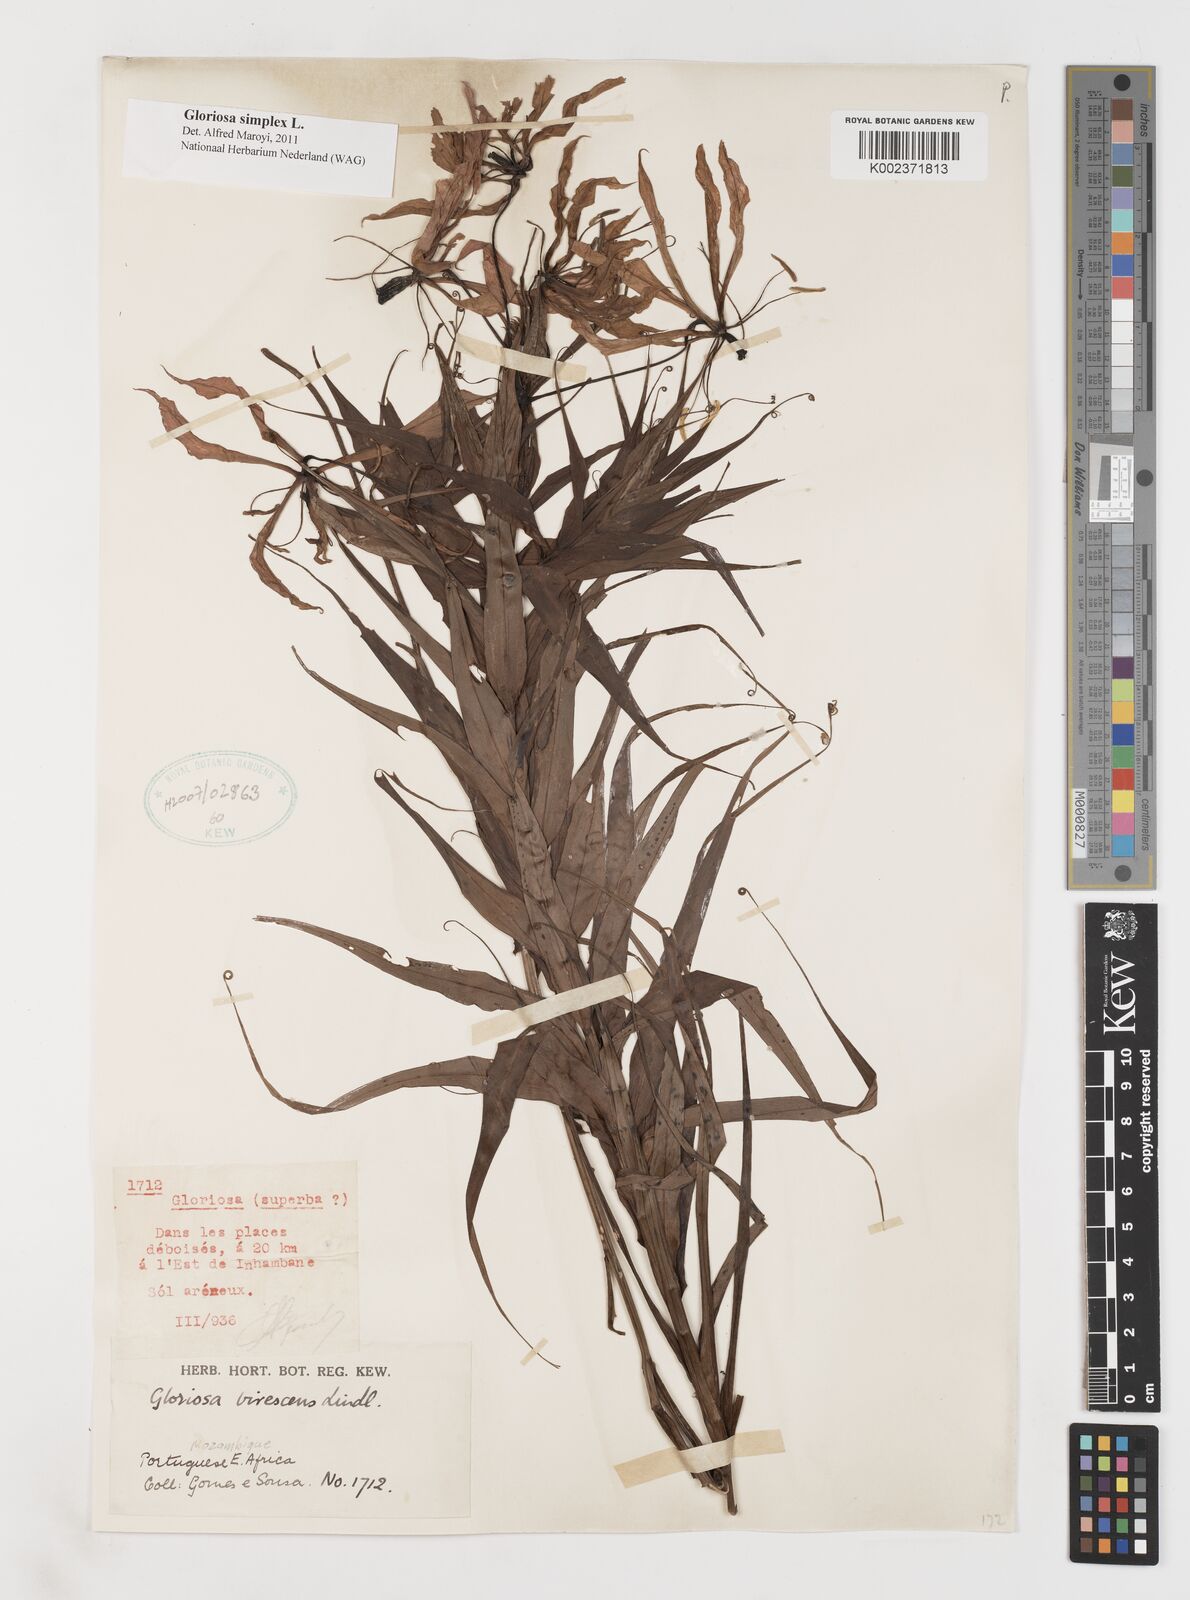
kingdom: Plantae
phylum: Tracheophyta
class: Liliopsida
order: Liliales
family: Colchicaceae
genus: Gloriosa
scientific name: Gloriosa simplex
